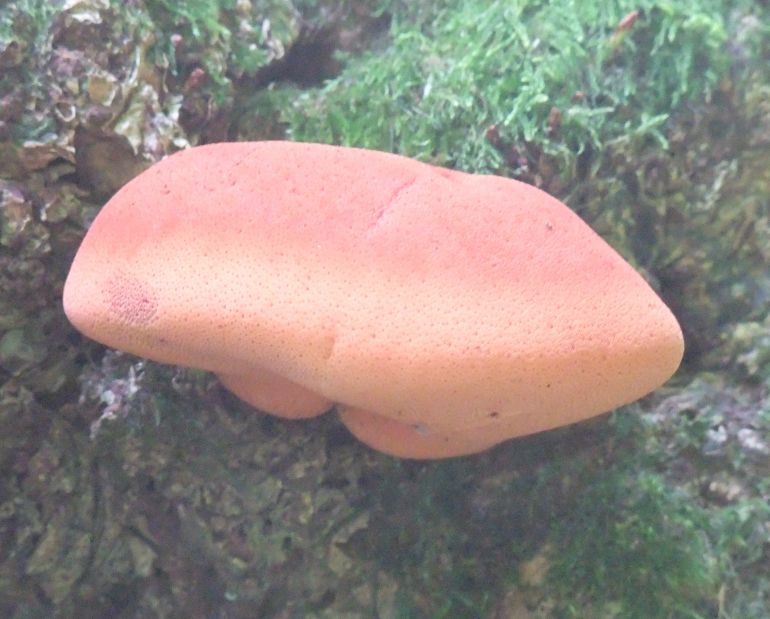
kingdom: Fungi
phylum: Basidiomycota
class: Agaricomycetes
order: Agaricales
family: Fistulinaceae
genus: Fistulina
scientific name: Fistulina hepatica
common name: oksetunge
